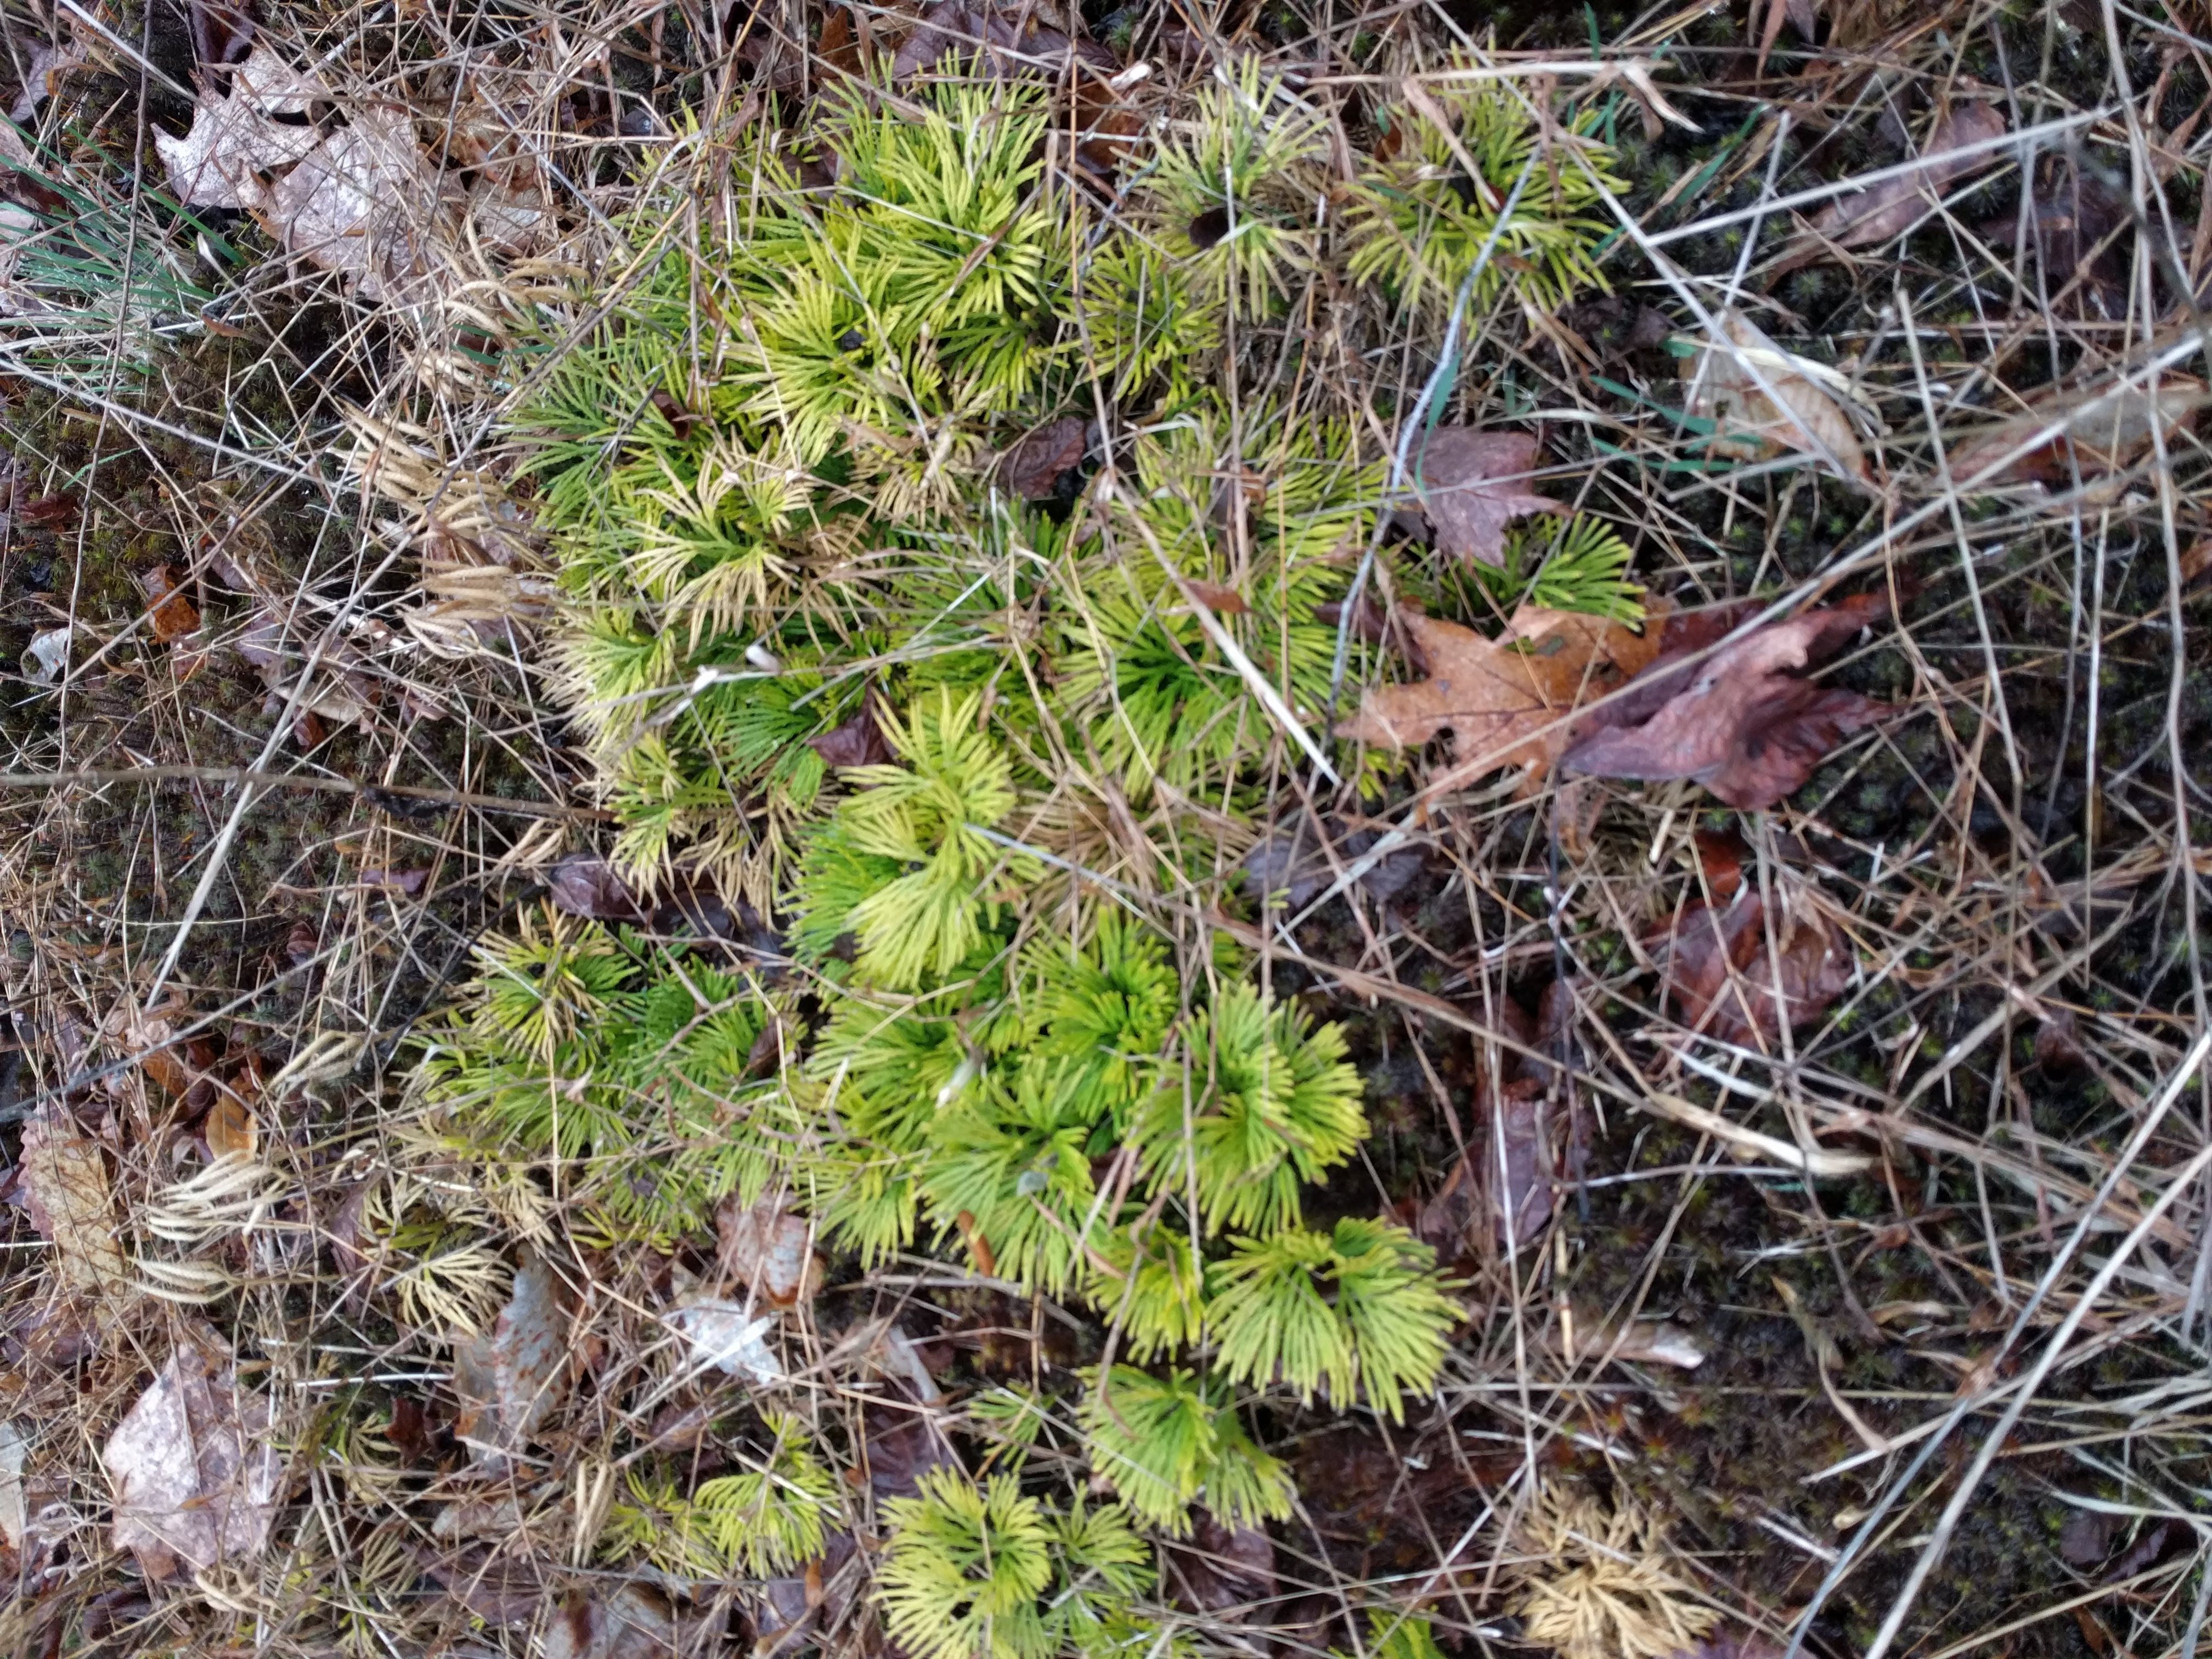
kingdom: Plantae
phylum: Tracheophyta
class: Lycopodiopsida
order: Lycopodiales
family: Lycopodiaceae
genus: Diphasiastrum
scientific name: Diphasiastrum tristachyum
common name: Blue ground-cedar
